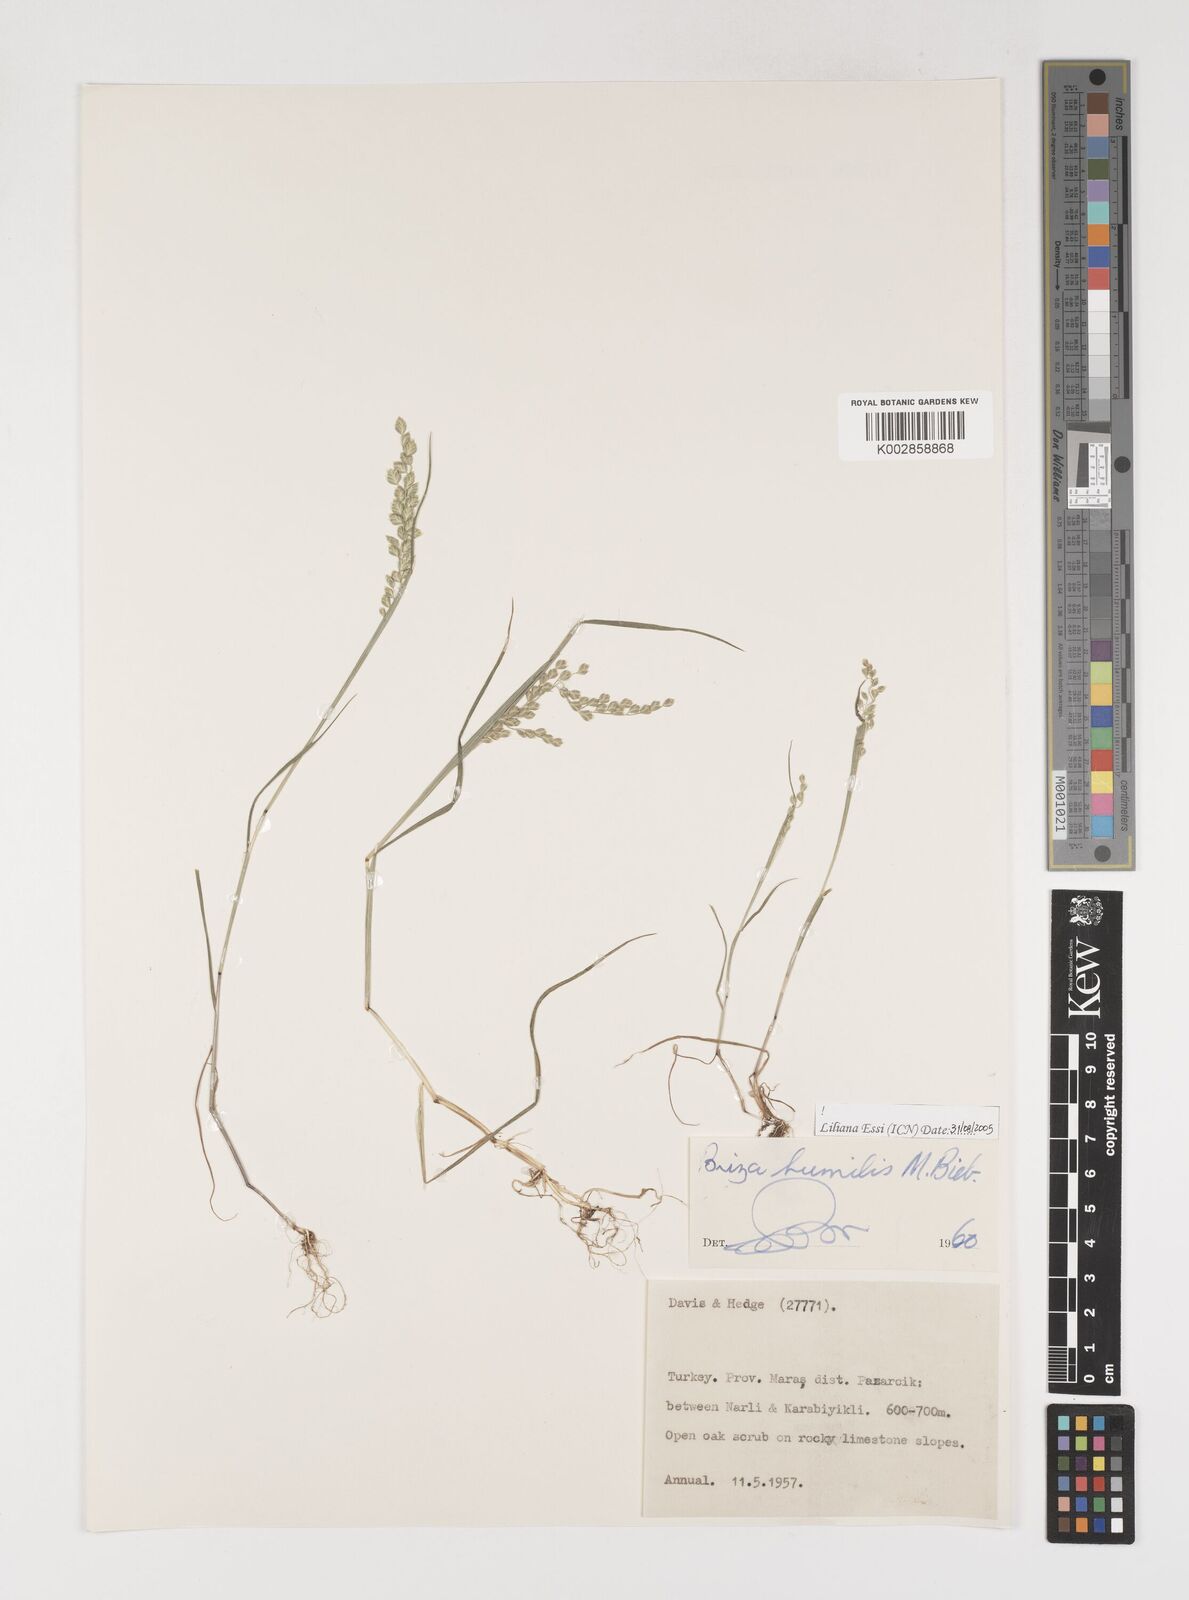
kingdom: Plantae
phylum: Tracheophyta
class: Liliopsida
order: Poales
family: Poaceae
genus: Briza
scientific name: Briza humilis
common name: Spiked quaking grass
